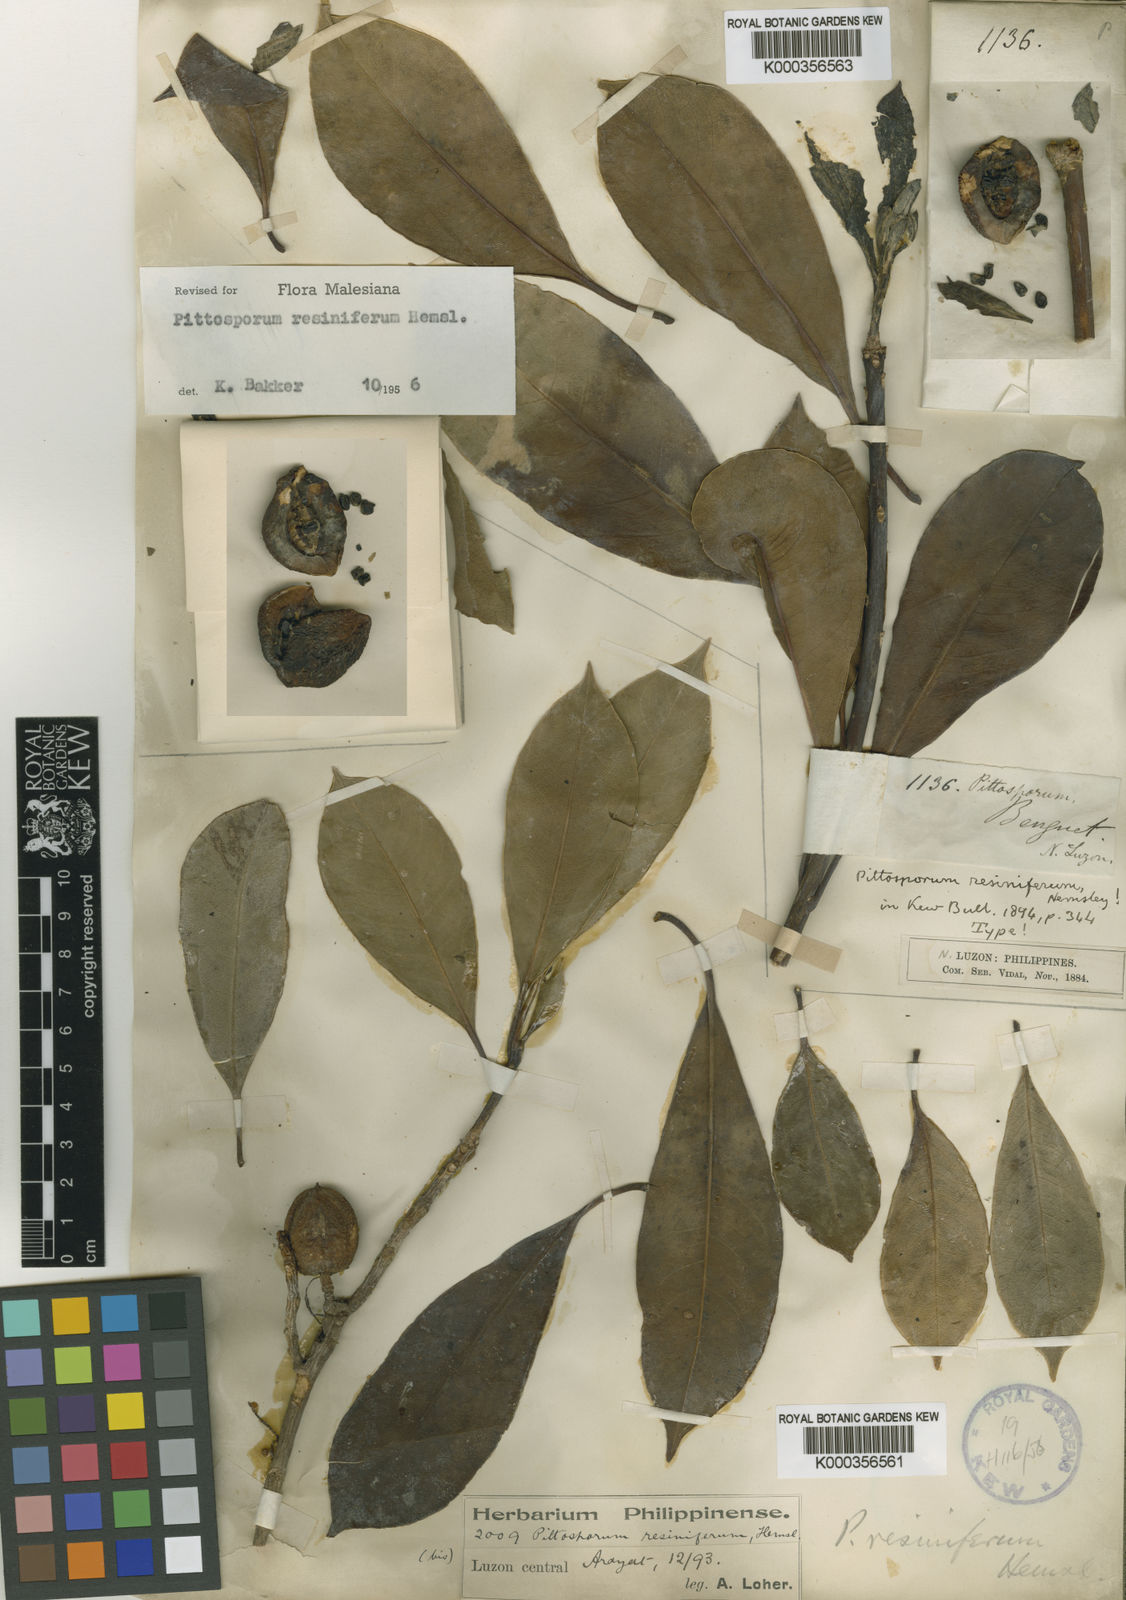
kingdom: Plantae
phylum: Tracheophyta
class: Magnoliopsida
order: Apiales
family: Pittosporaceae
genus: Pittosporum
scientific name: Pittosporum resiniferum
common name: Petroleum-nut
